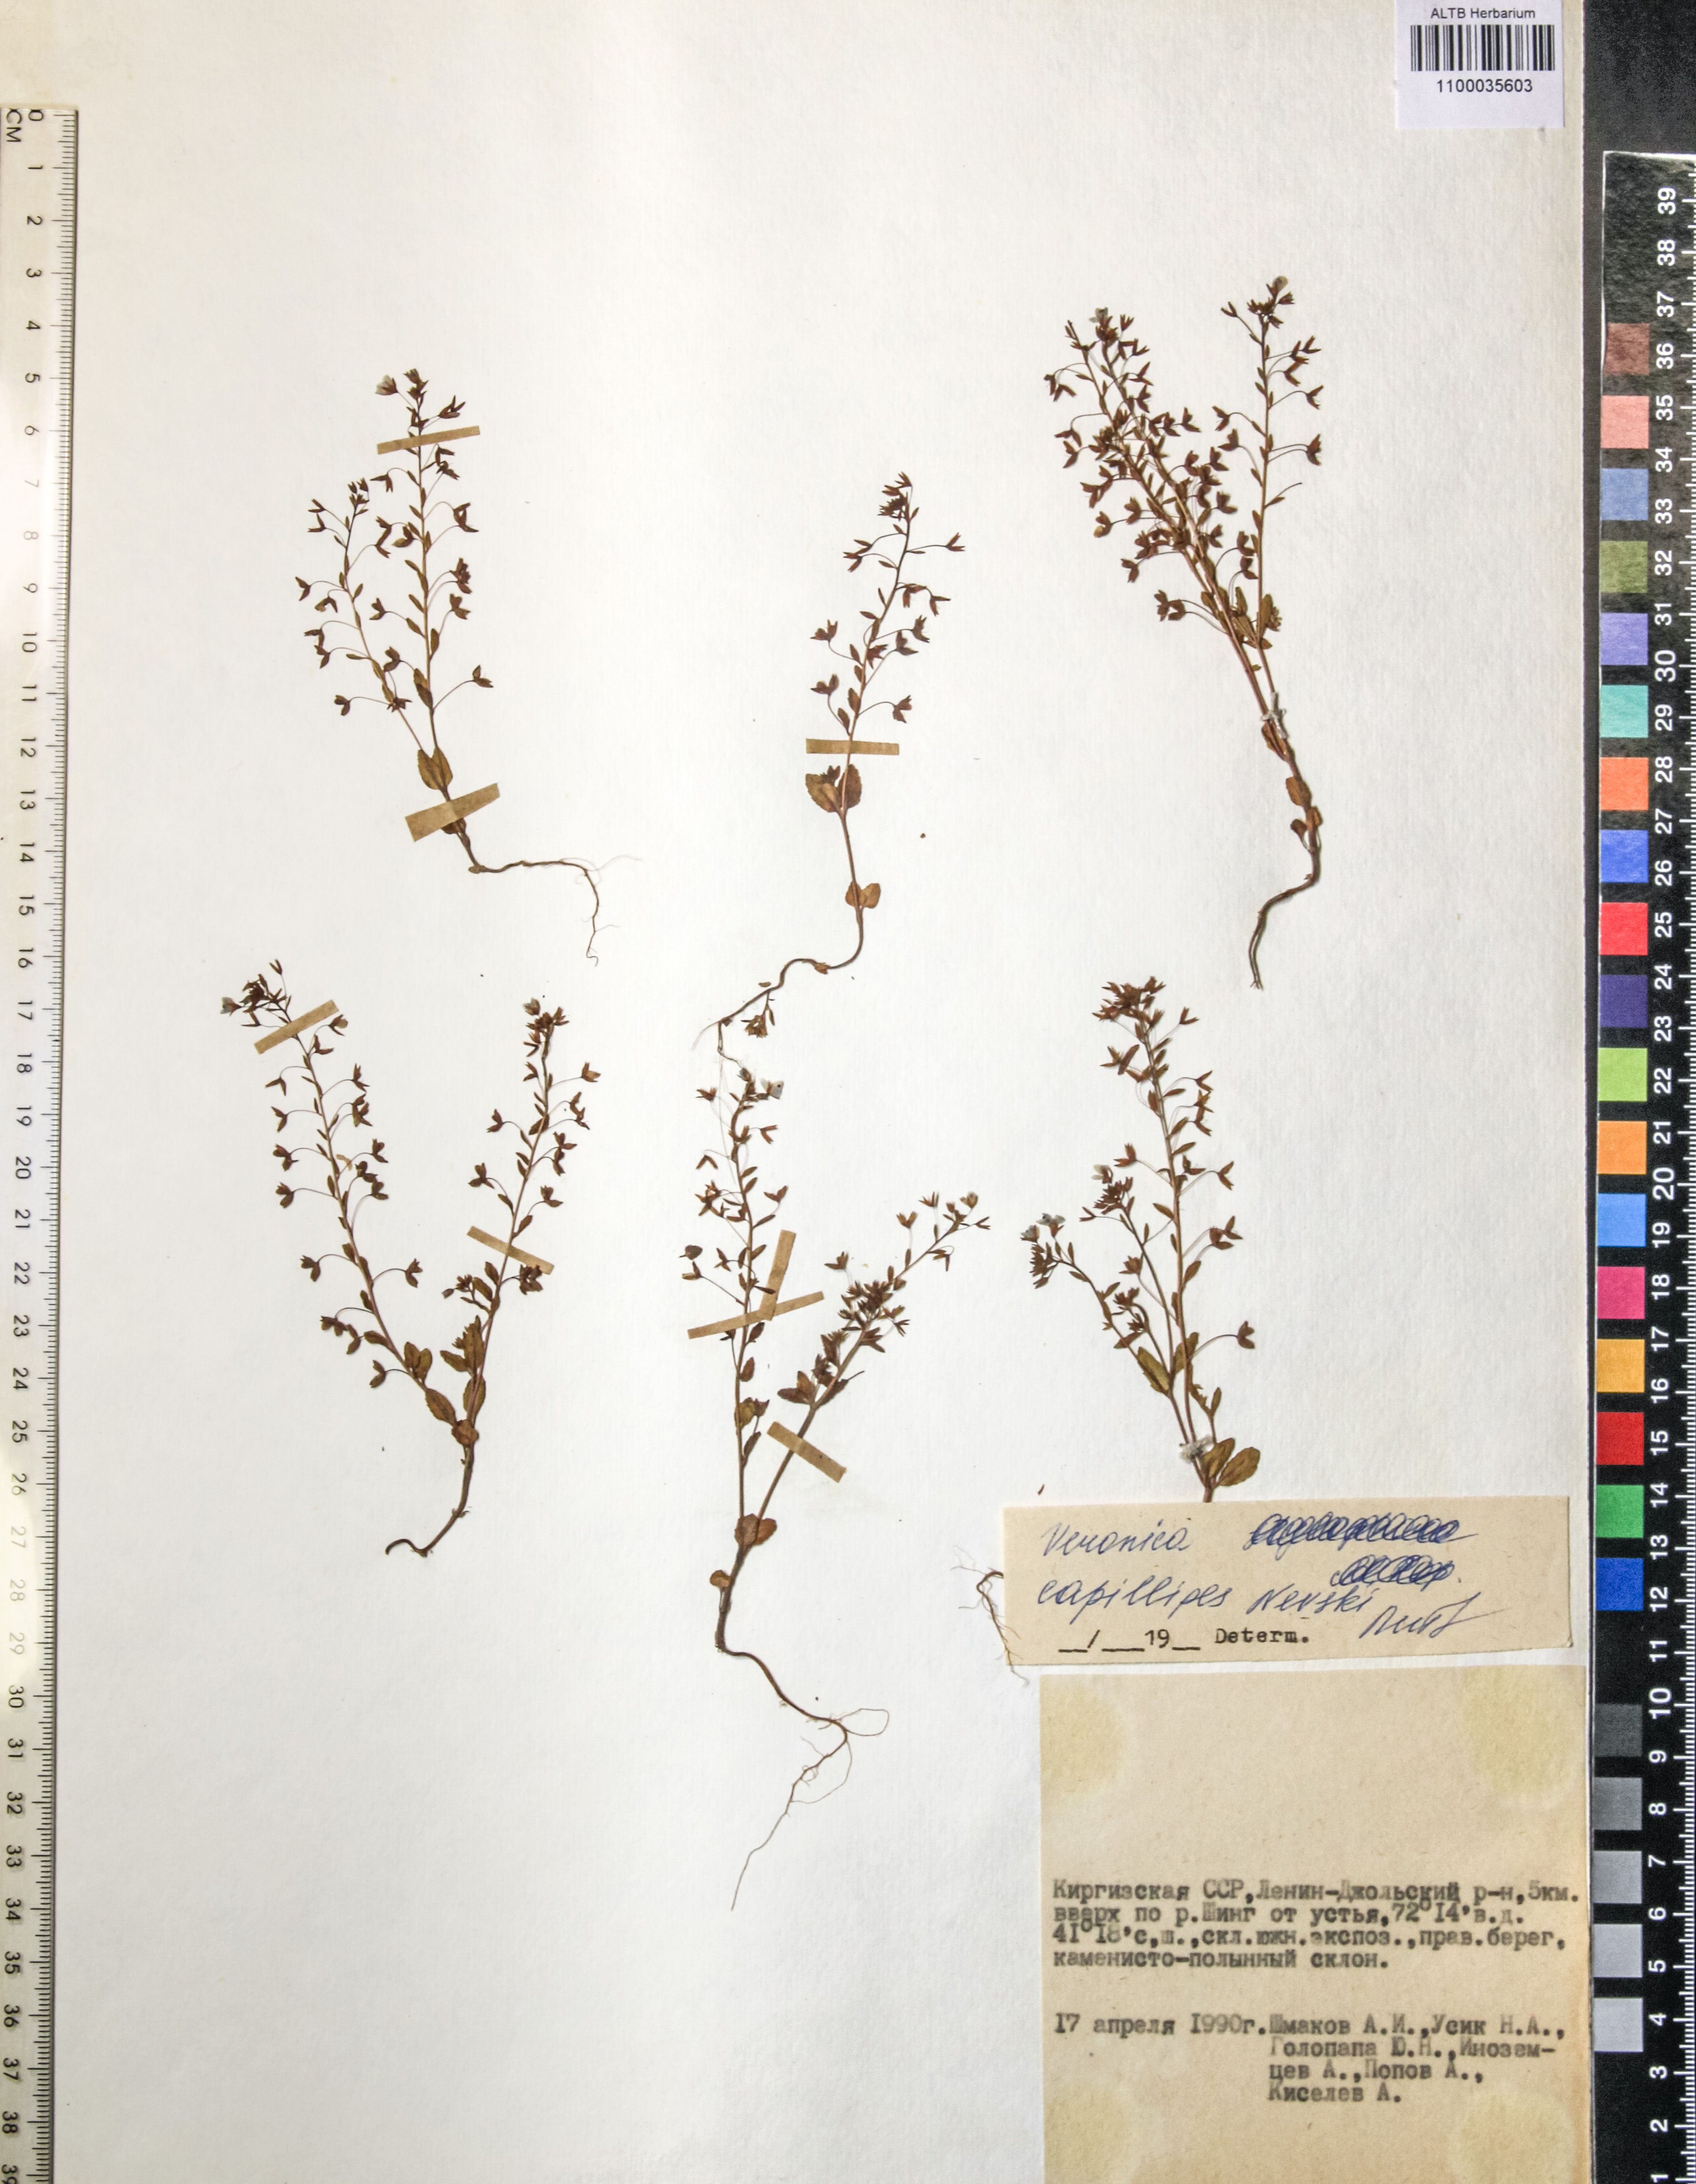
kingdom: Plantae
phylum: Tracheophyta
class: Magnoliopsida
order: Lamiales
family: Plantaginaceae
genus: Veronica
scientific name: Veronica capillipes
